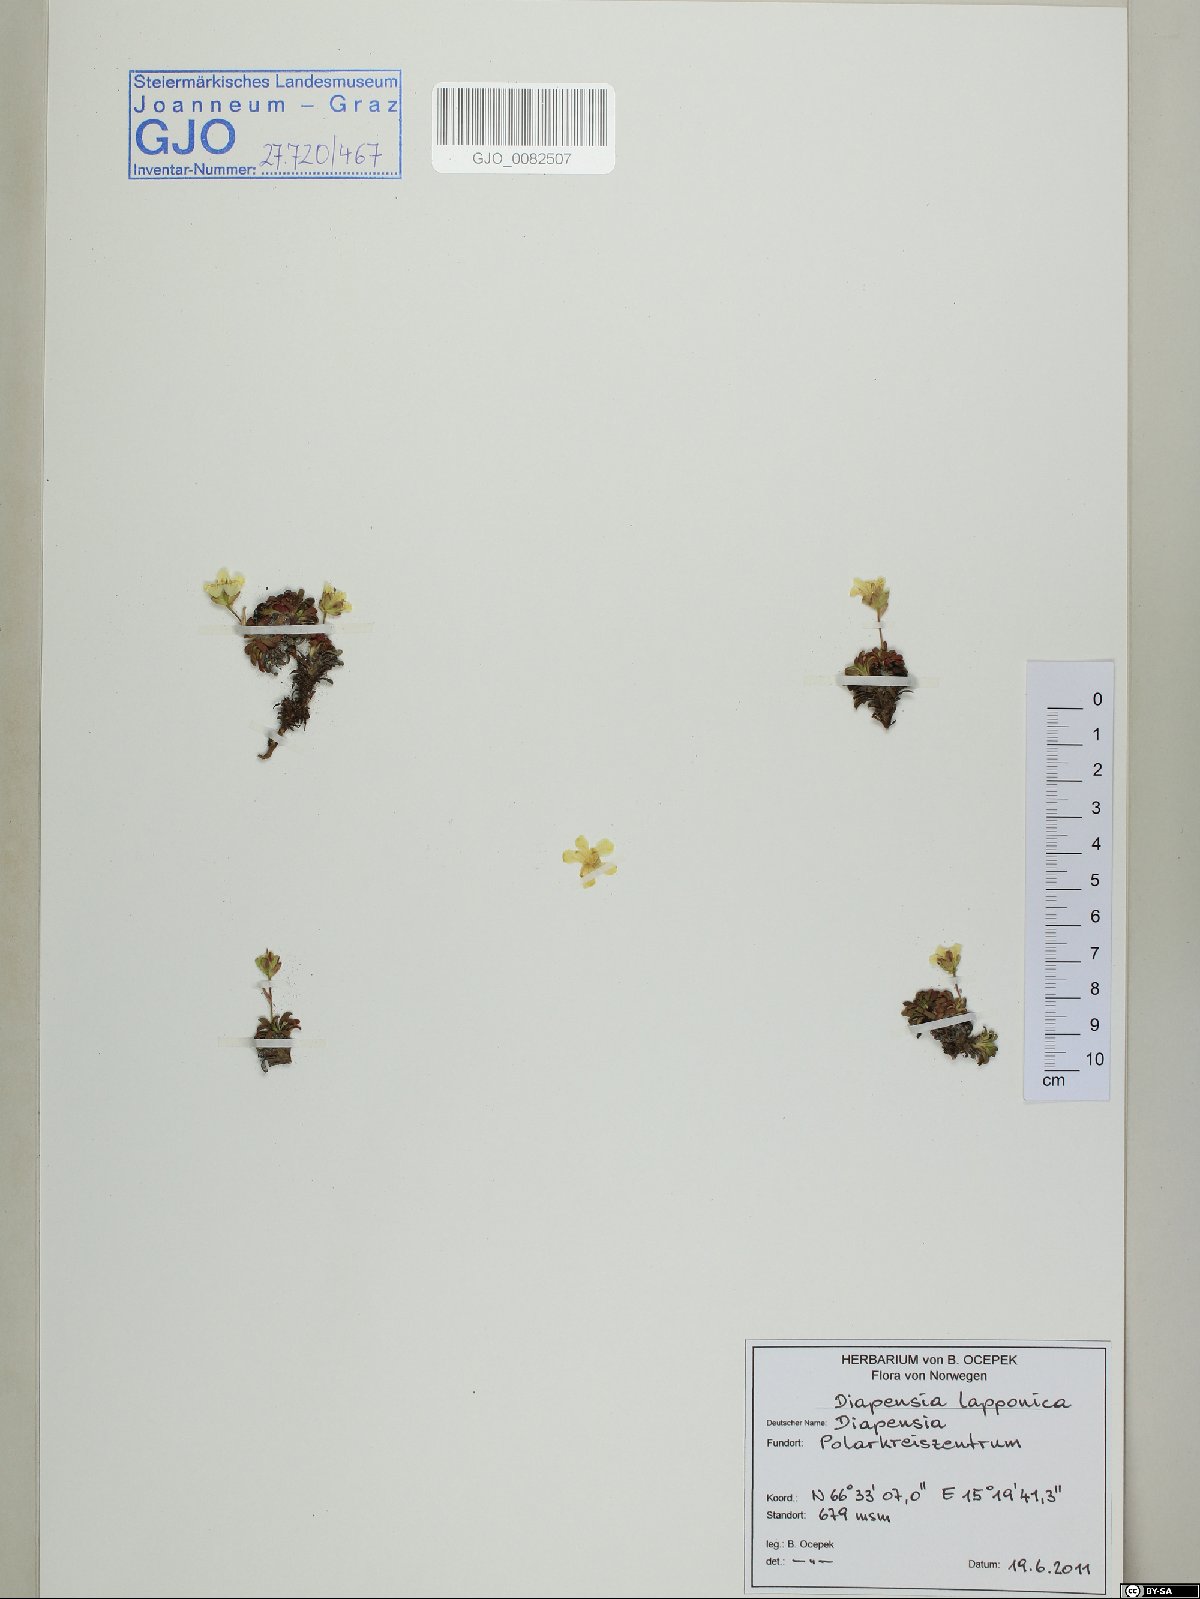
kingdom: Plantae
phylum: Tracheophyta
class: Magnoliopsida
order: Ericales
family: Diapensiaceae
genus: Diapensia
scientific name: Diapensia lapponica
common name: Diapensia
